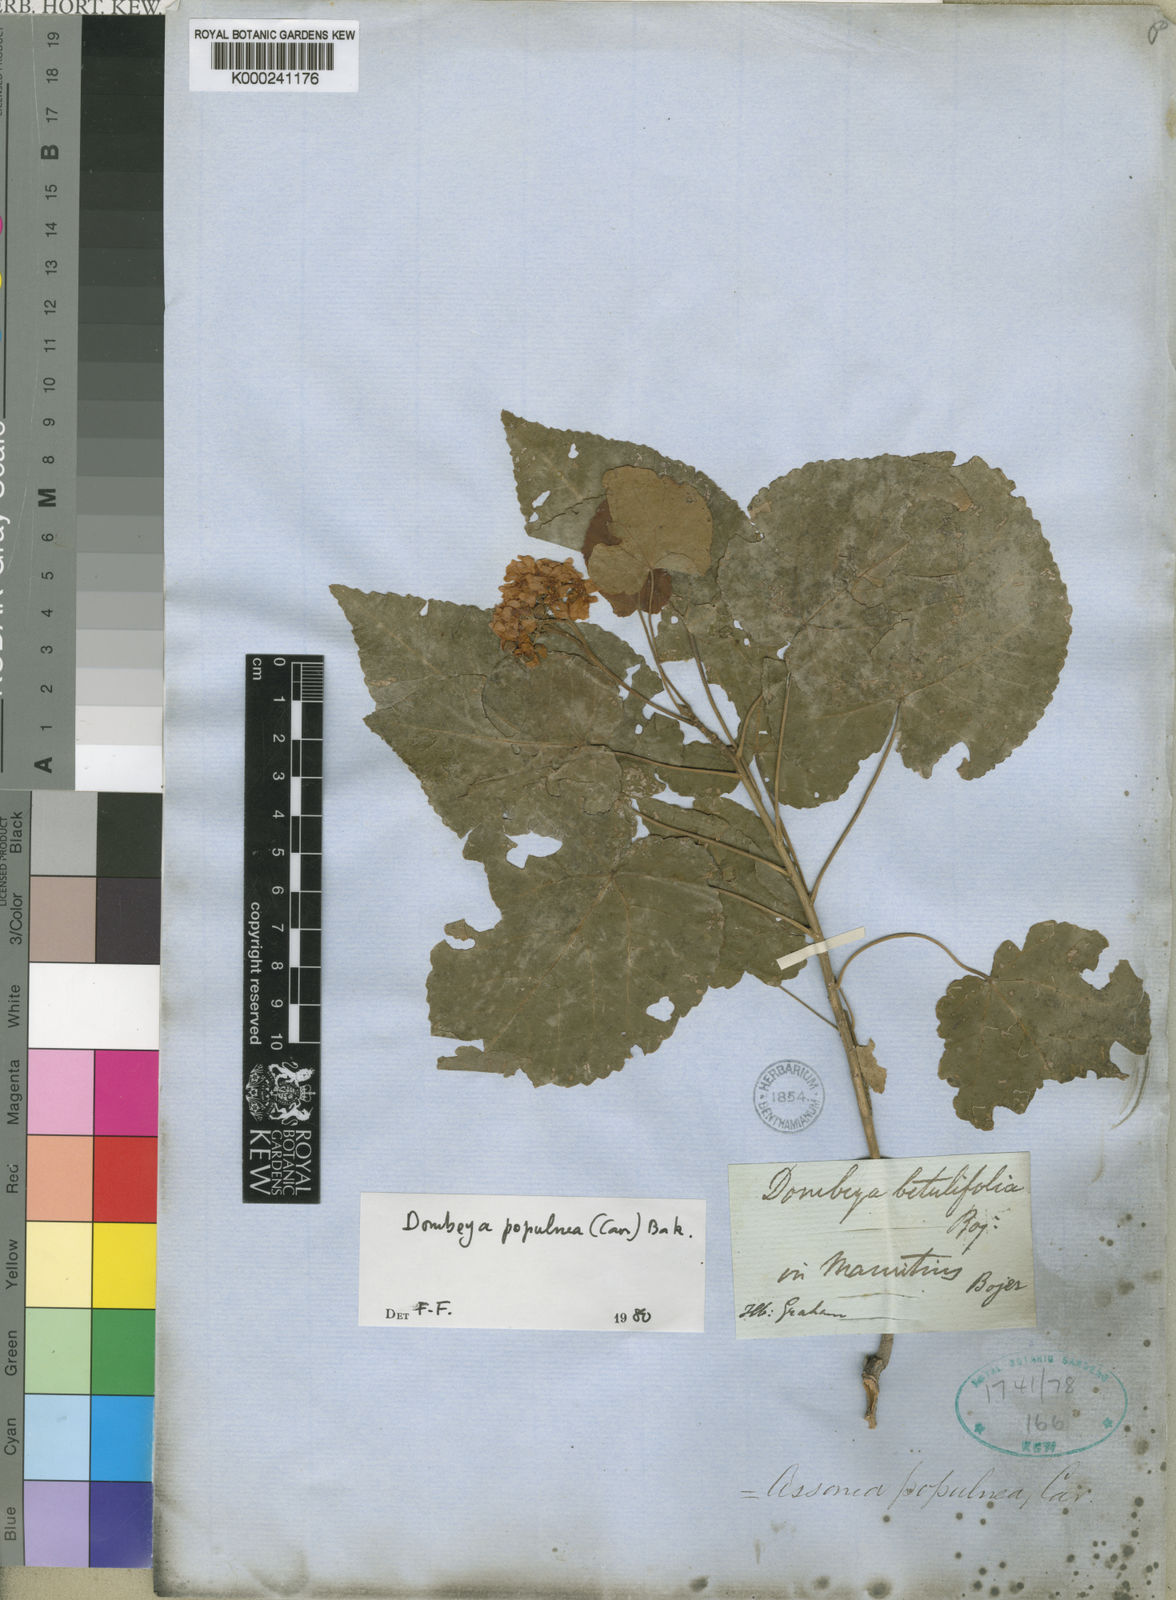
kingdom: Plantae
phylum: Tracheophyta
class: Magnoliopsida
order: Malvales
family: Malvaceae
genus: Dombeya
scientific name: Dombeya
